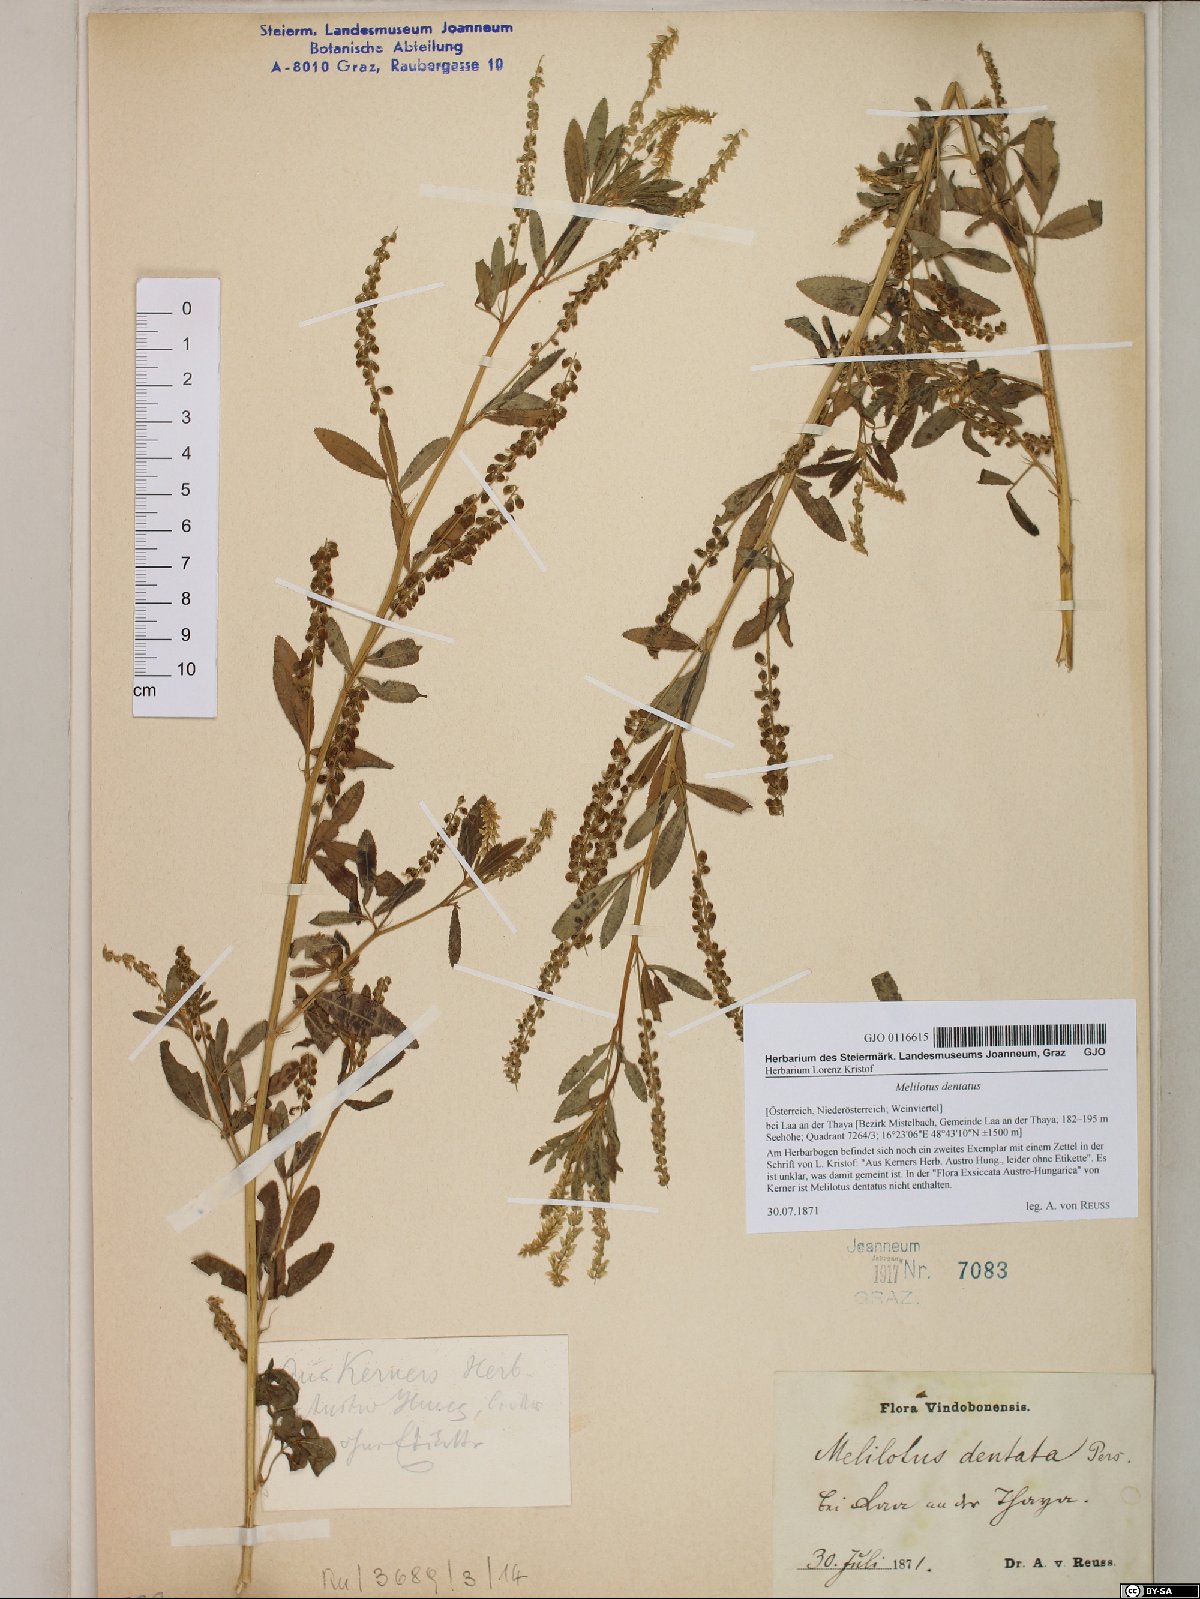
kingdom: Plantae
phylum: Tracheophyta
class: Magnoliopsida
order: Fabales
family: Fabaceae
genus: Melilotus
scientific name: Melilotus dentatus
